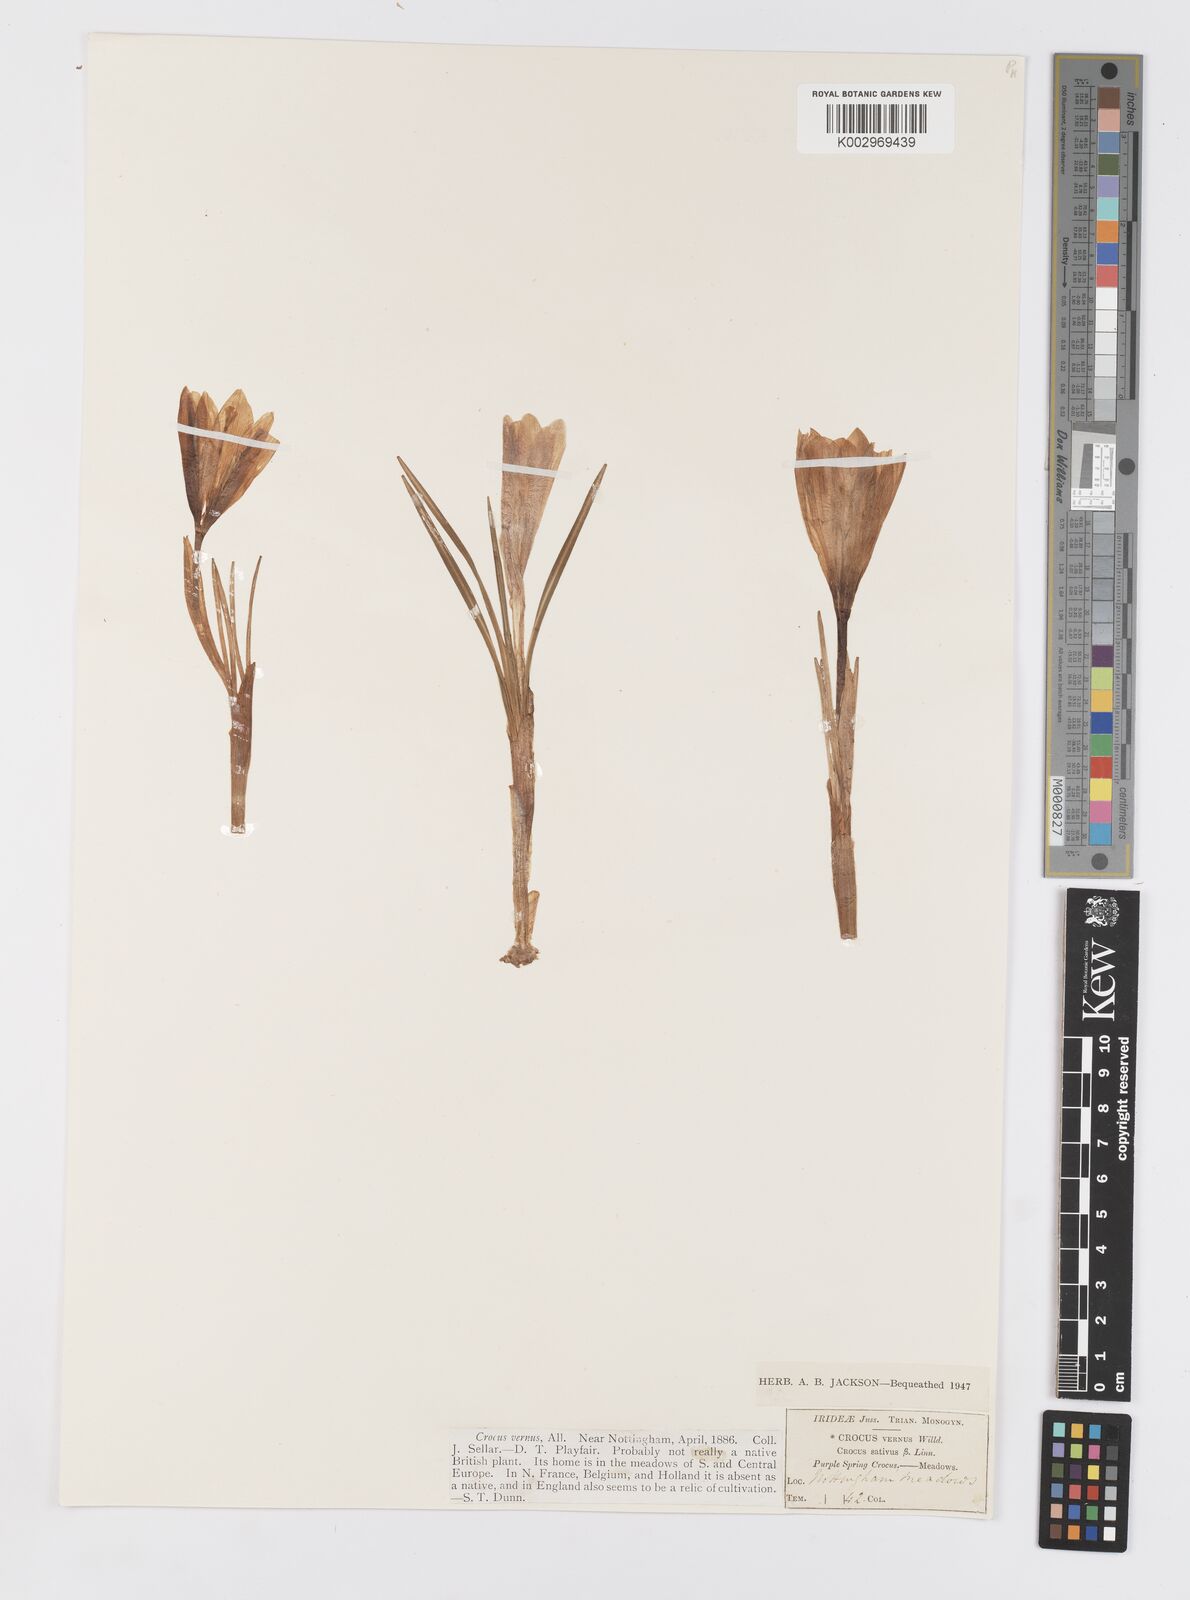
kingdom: Plantae
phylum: Tracheophyta
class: Liliopsida
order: Asparagales
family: Iridaceae
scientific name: Iridaceae
